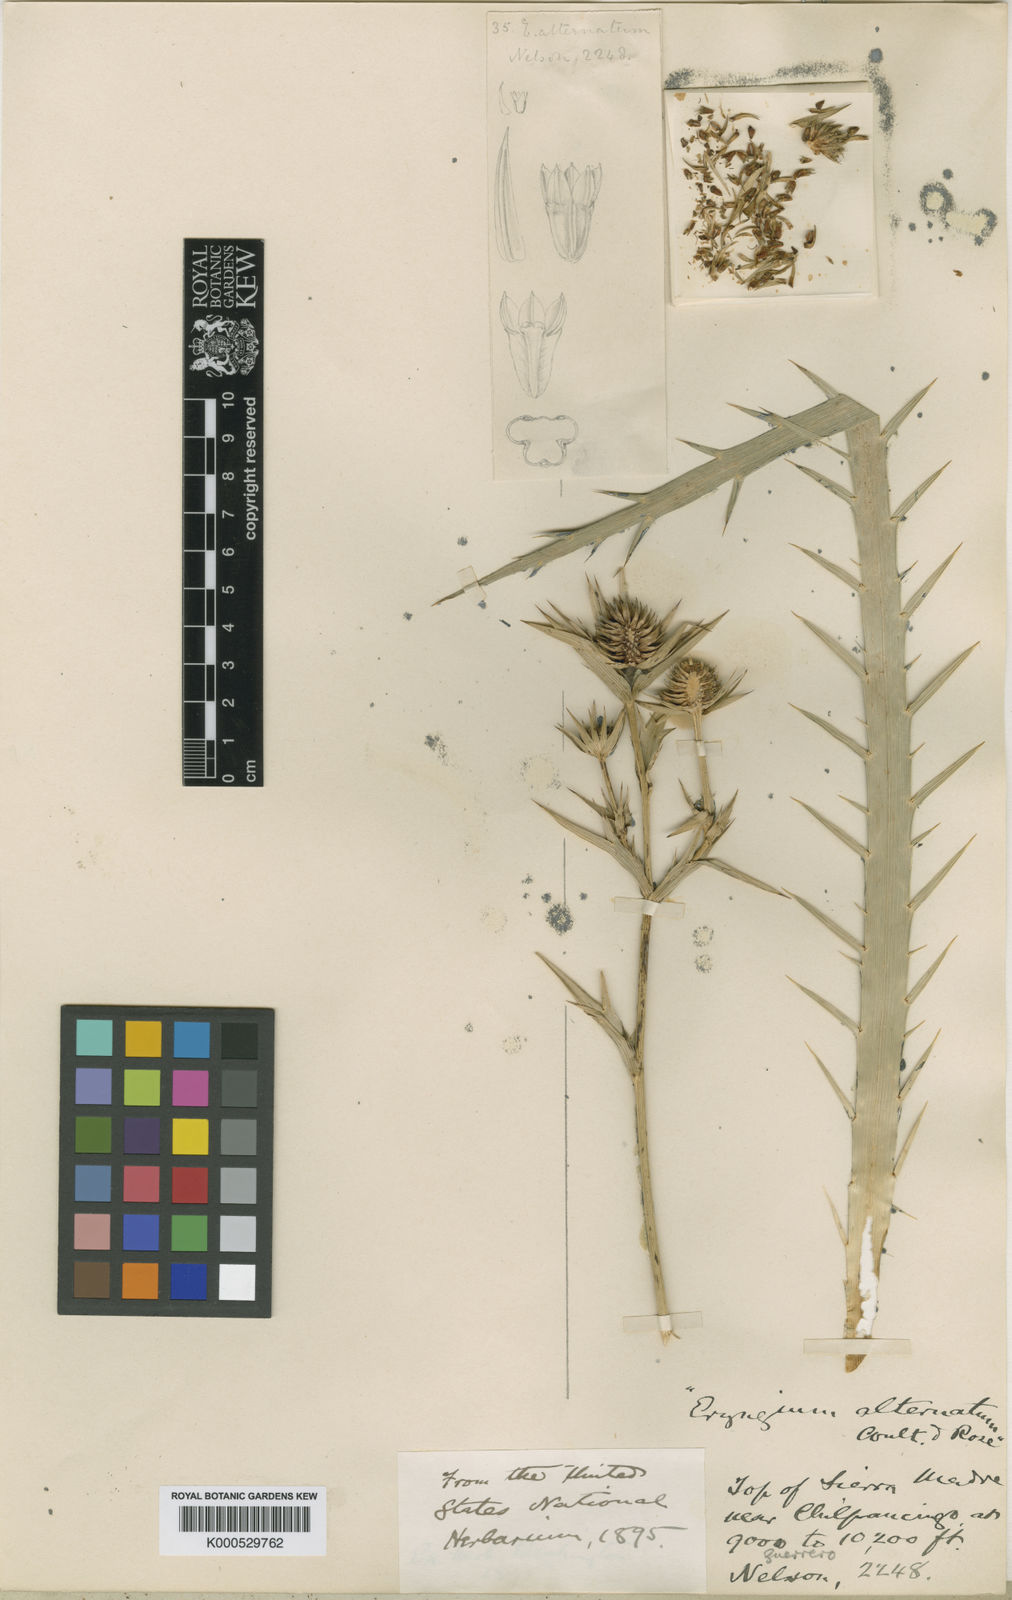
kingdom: Plantae
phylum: Tracheophyta
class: Magnoliopsida
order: Apiales
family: Apiaceae
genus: Eryngium
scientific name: Eryngium monocephalum
